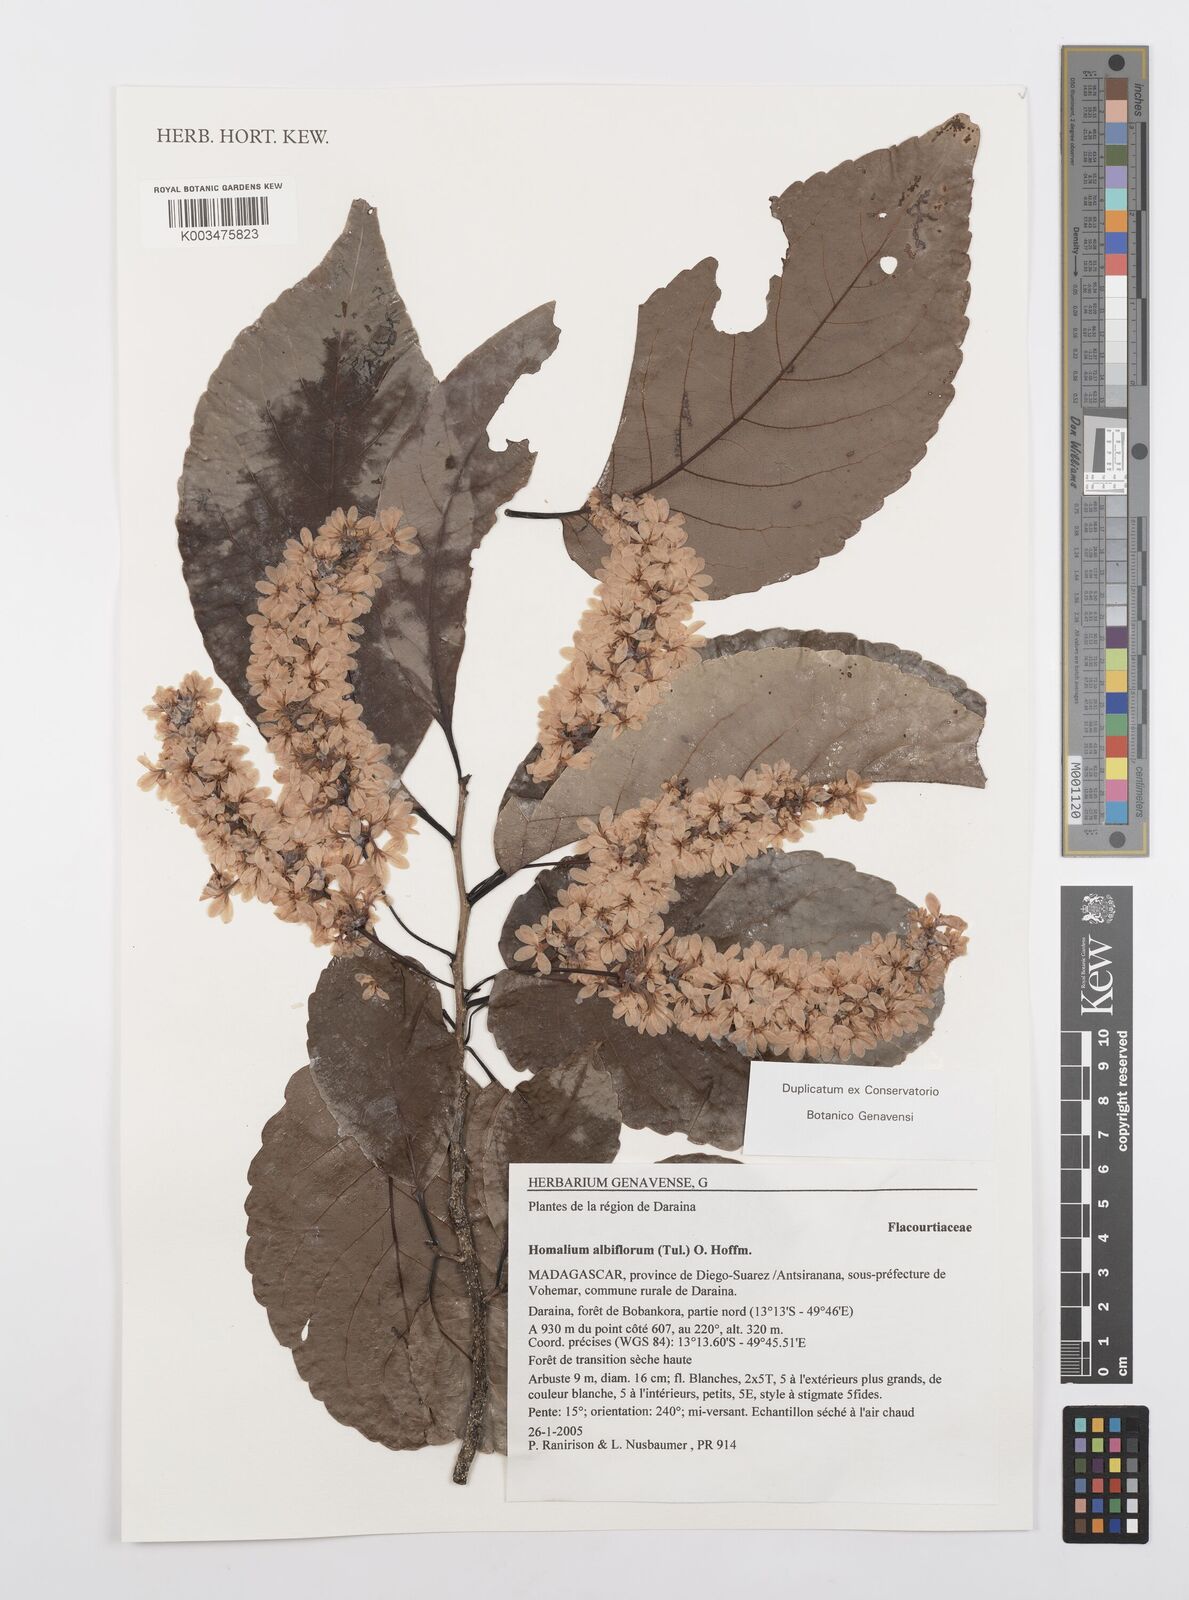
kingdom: Plantae
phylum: Tracheophyta
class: Magnoliopsida
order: Malpighiales
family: Salicaceae
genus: Homalium
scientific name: Homalium albiflorum
